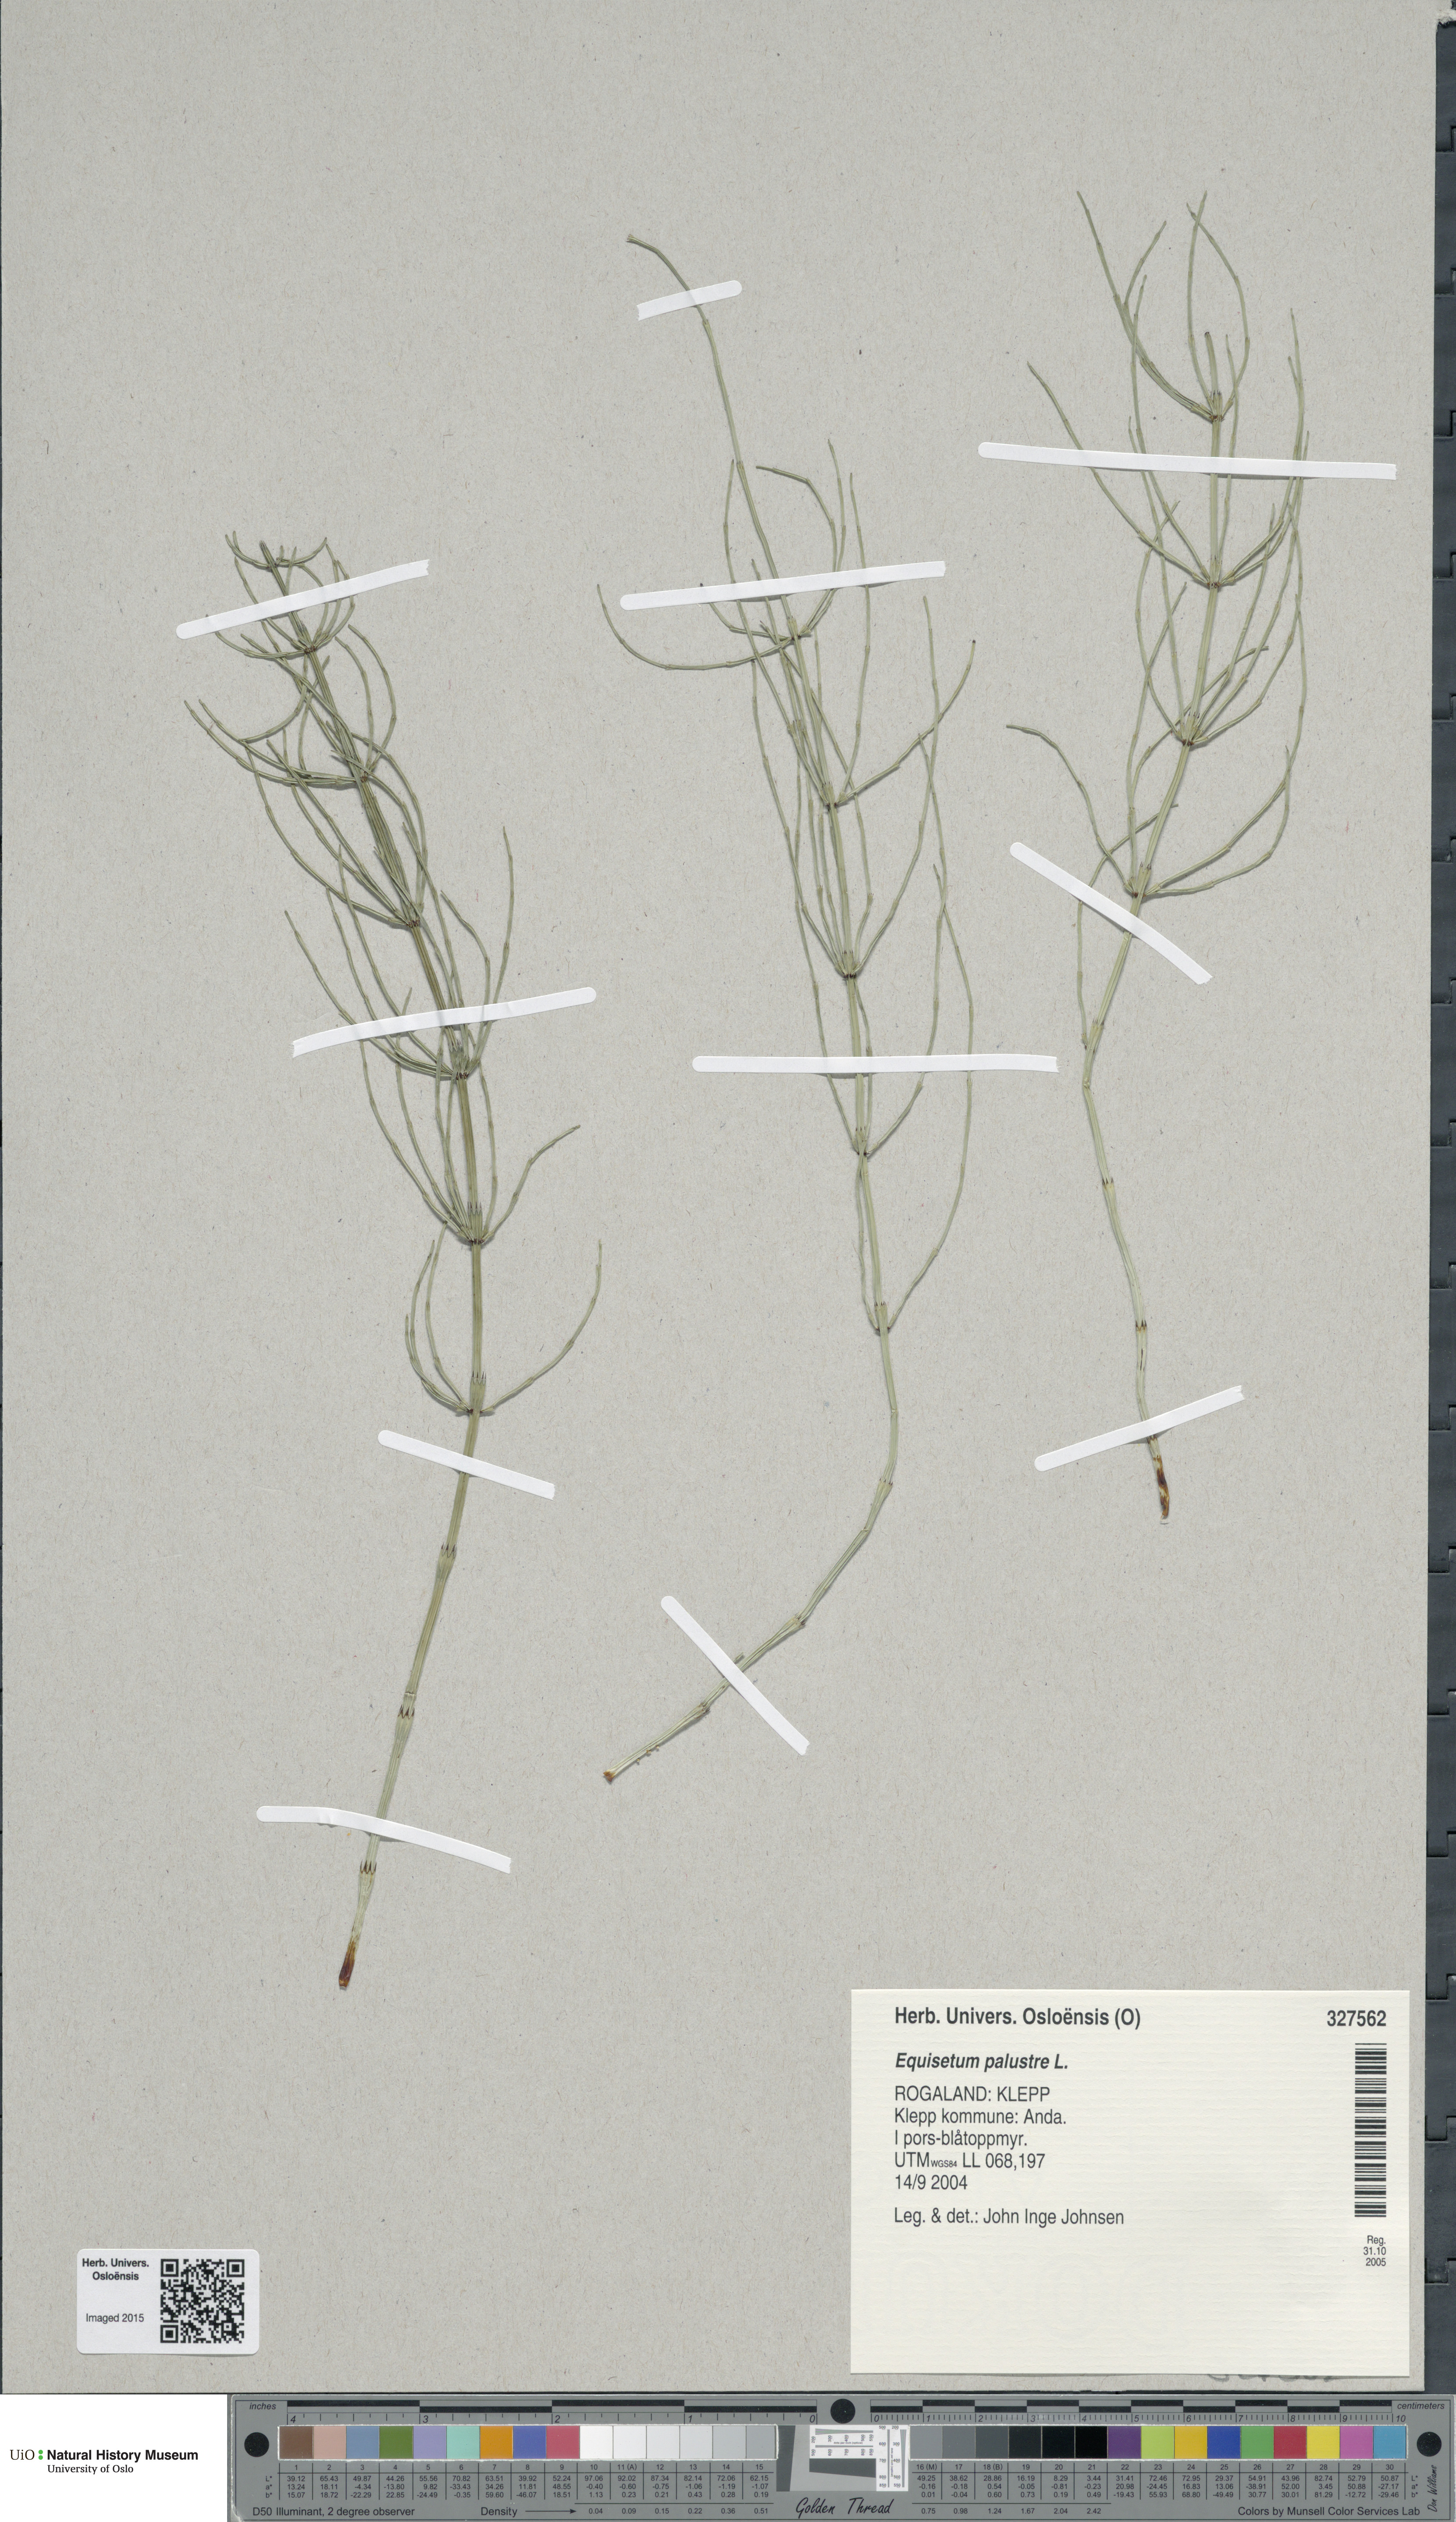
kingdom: Plantae
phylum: Tracheophyta
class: Polypodiopsida
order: Equisetales
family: Equisetaceae
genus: Equisetum
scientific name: Equisetum palustre
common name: Marsh horsetail
